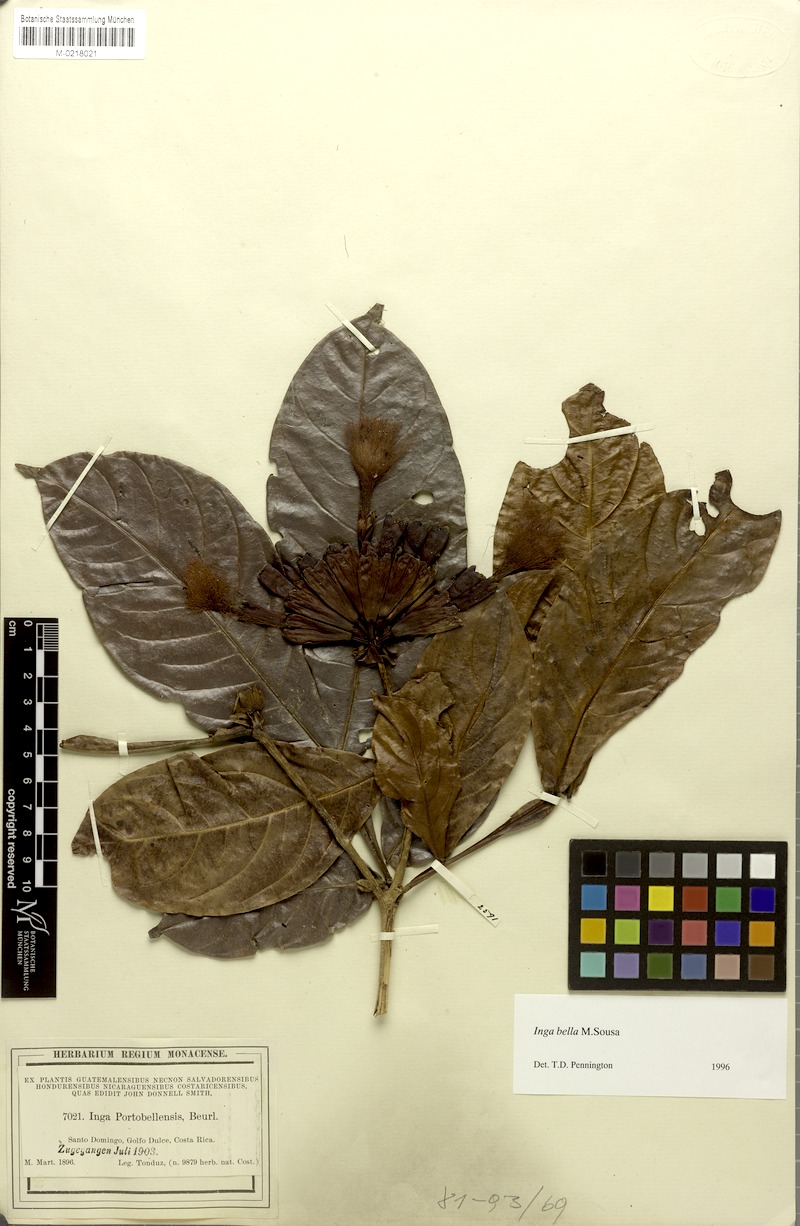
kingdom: Plantae
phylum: Tracheophyta
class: Magnoliopsida
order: Fabales
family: Fabaceae
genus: Inga
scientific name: Inga bella
